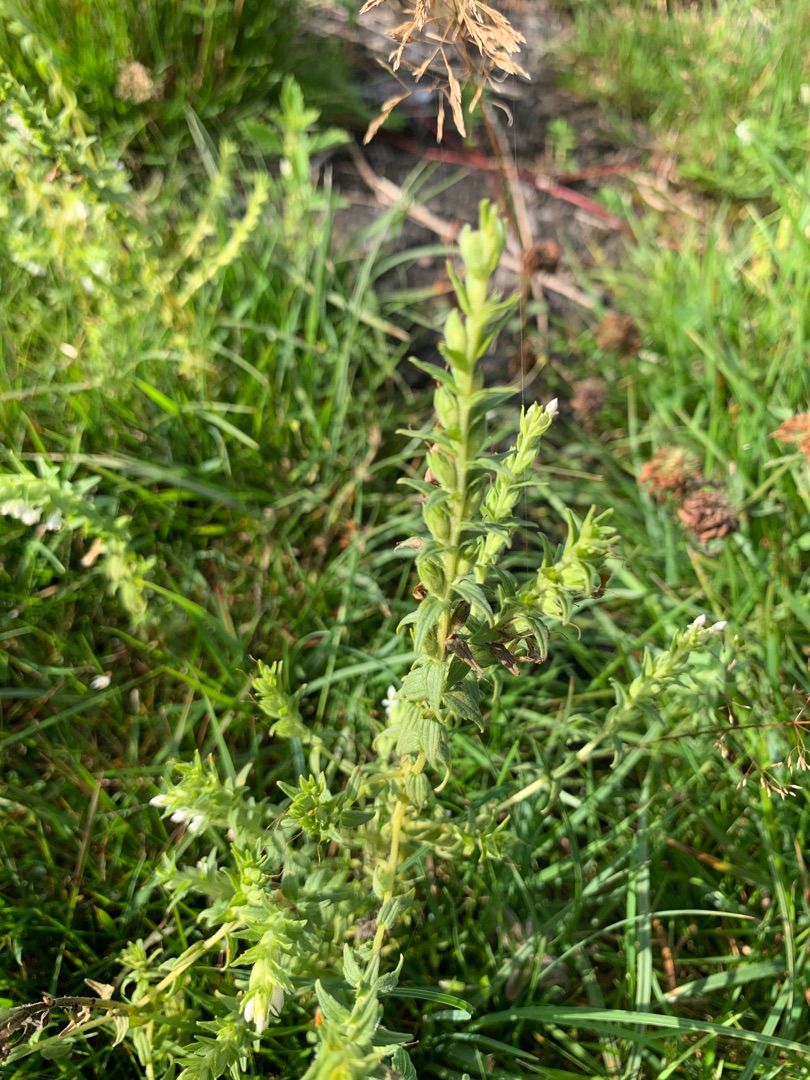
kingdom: Plantae
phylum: Tracheophyta
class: Magnoliopsida
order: Lamiales
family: Orobanchaceae
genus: Odontites
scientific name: Odontites
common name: Rødtopslægten
